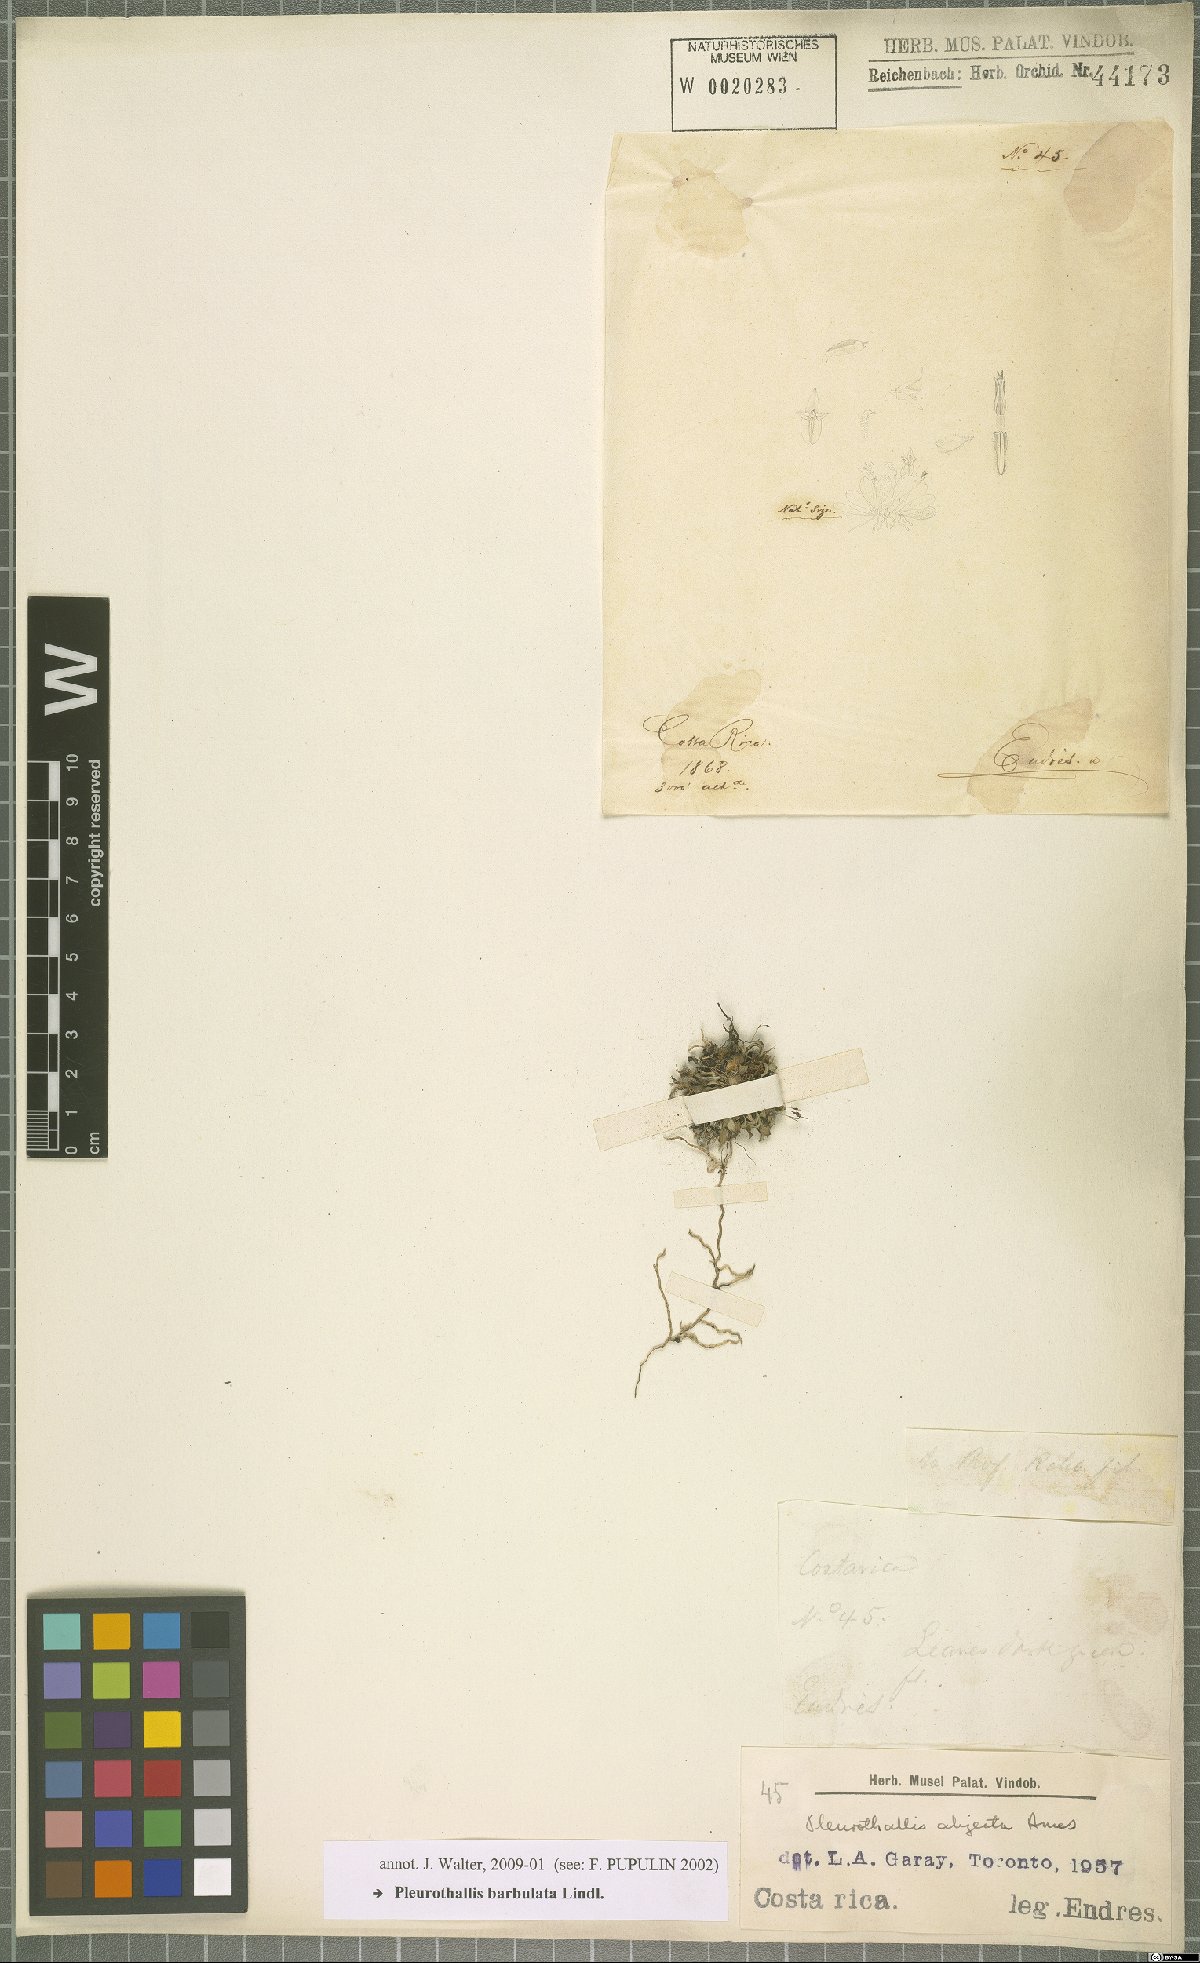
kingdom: Plantae
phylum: Tracheophyta
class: Liliopsida
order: Asparagales
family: Orchidaceae
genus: Anathallis
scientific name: Anathallis barbulata
